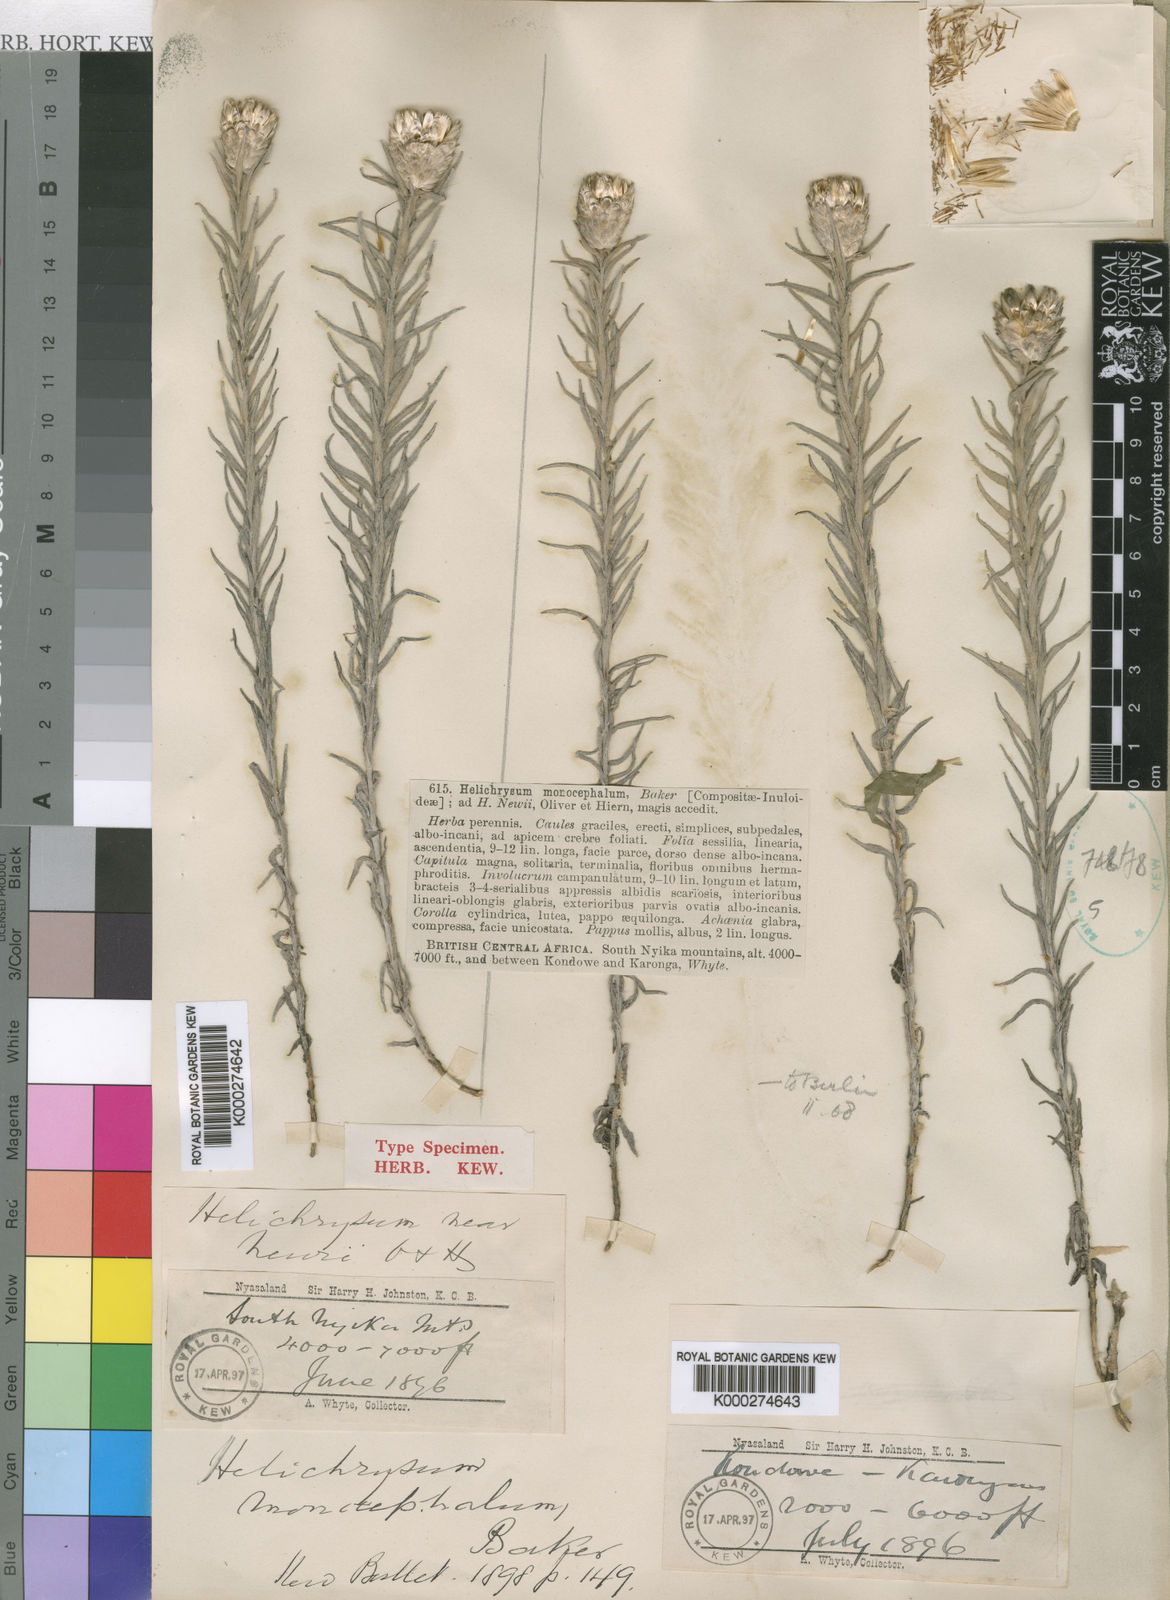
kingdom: Plantae
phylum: Tracheophyta
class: Magnoliopsida
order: Asterales
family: Asteraceae
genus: Helichrysum
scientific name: Helichrysum herbaceum
